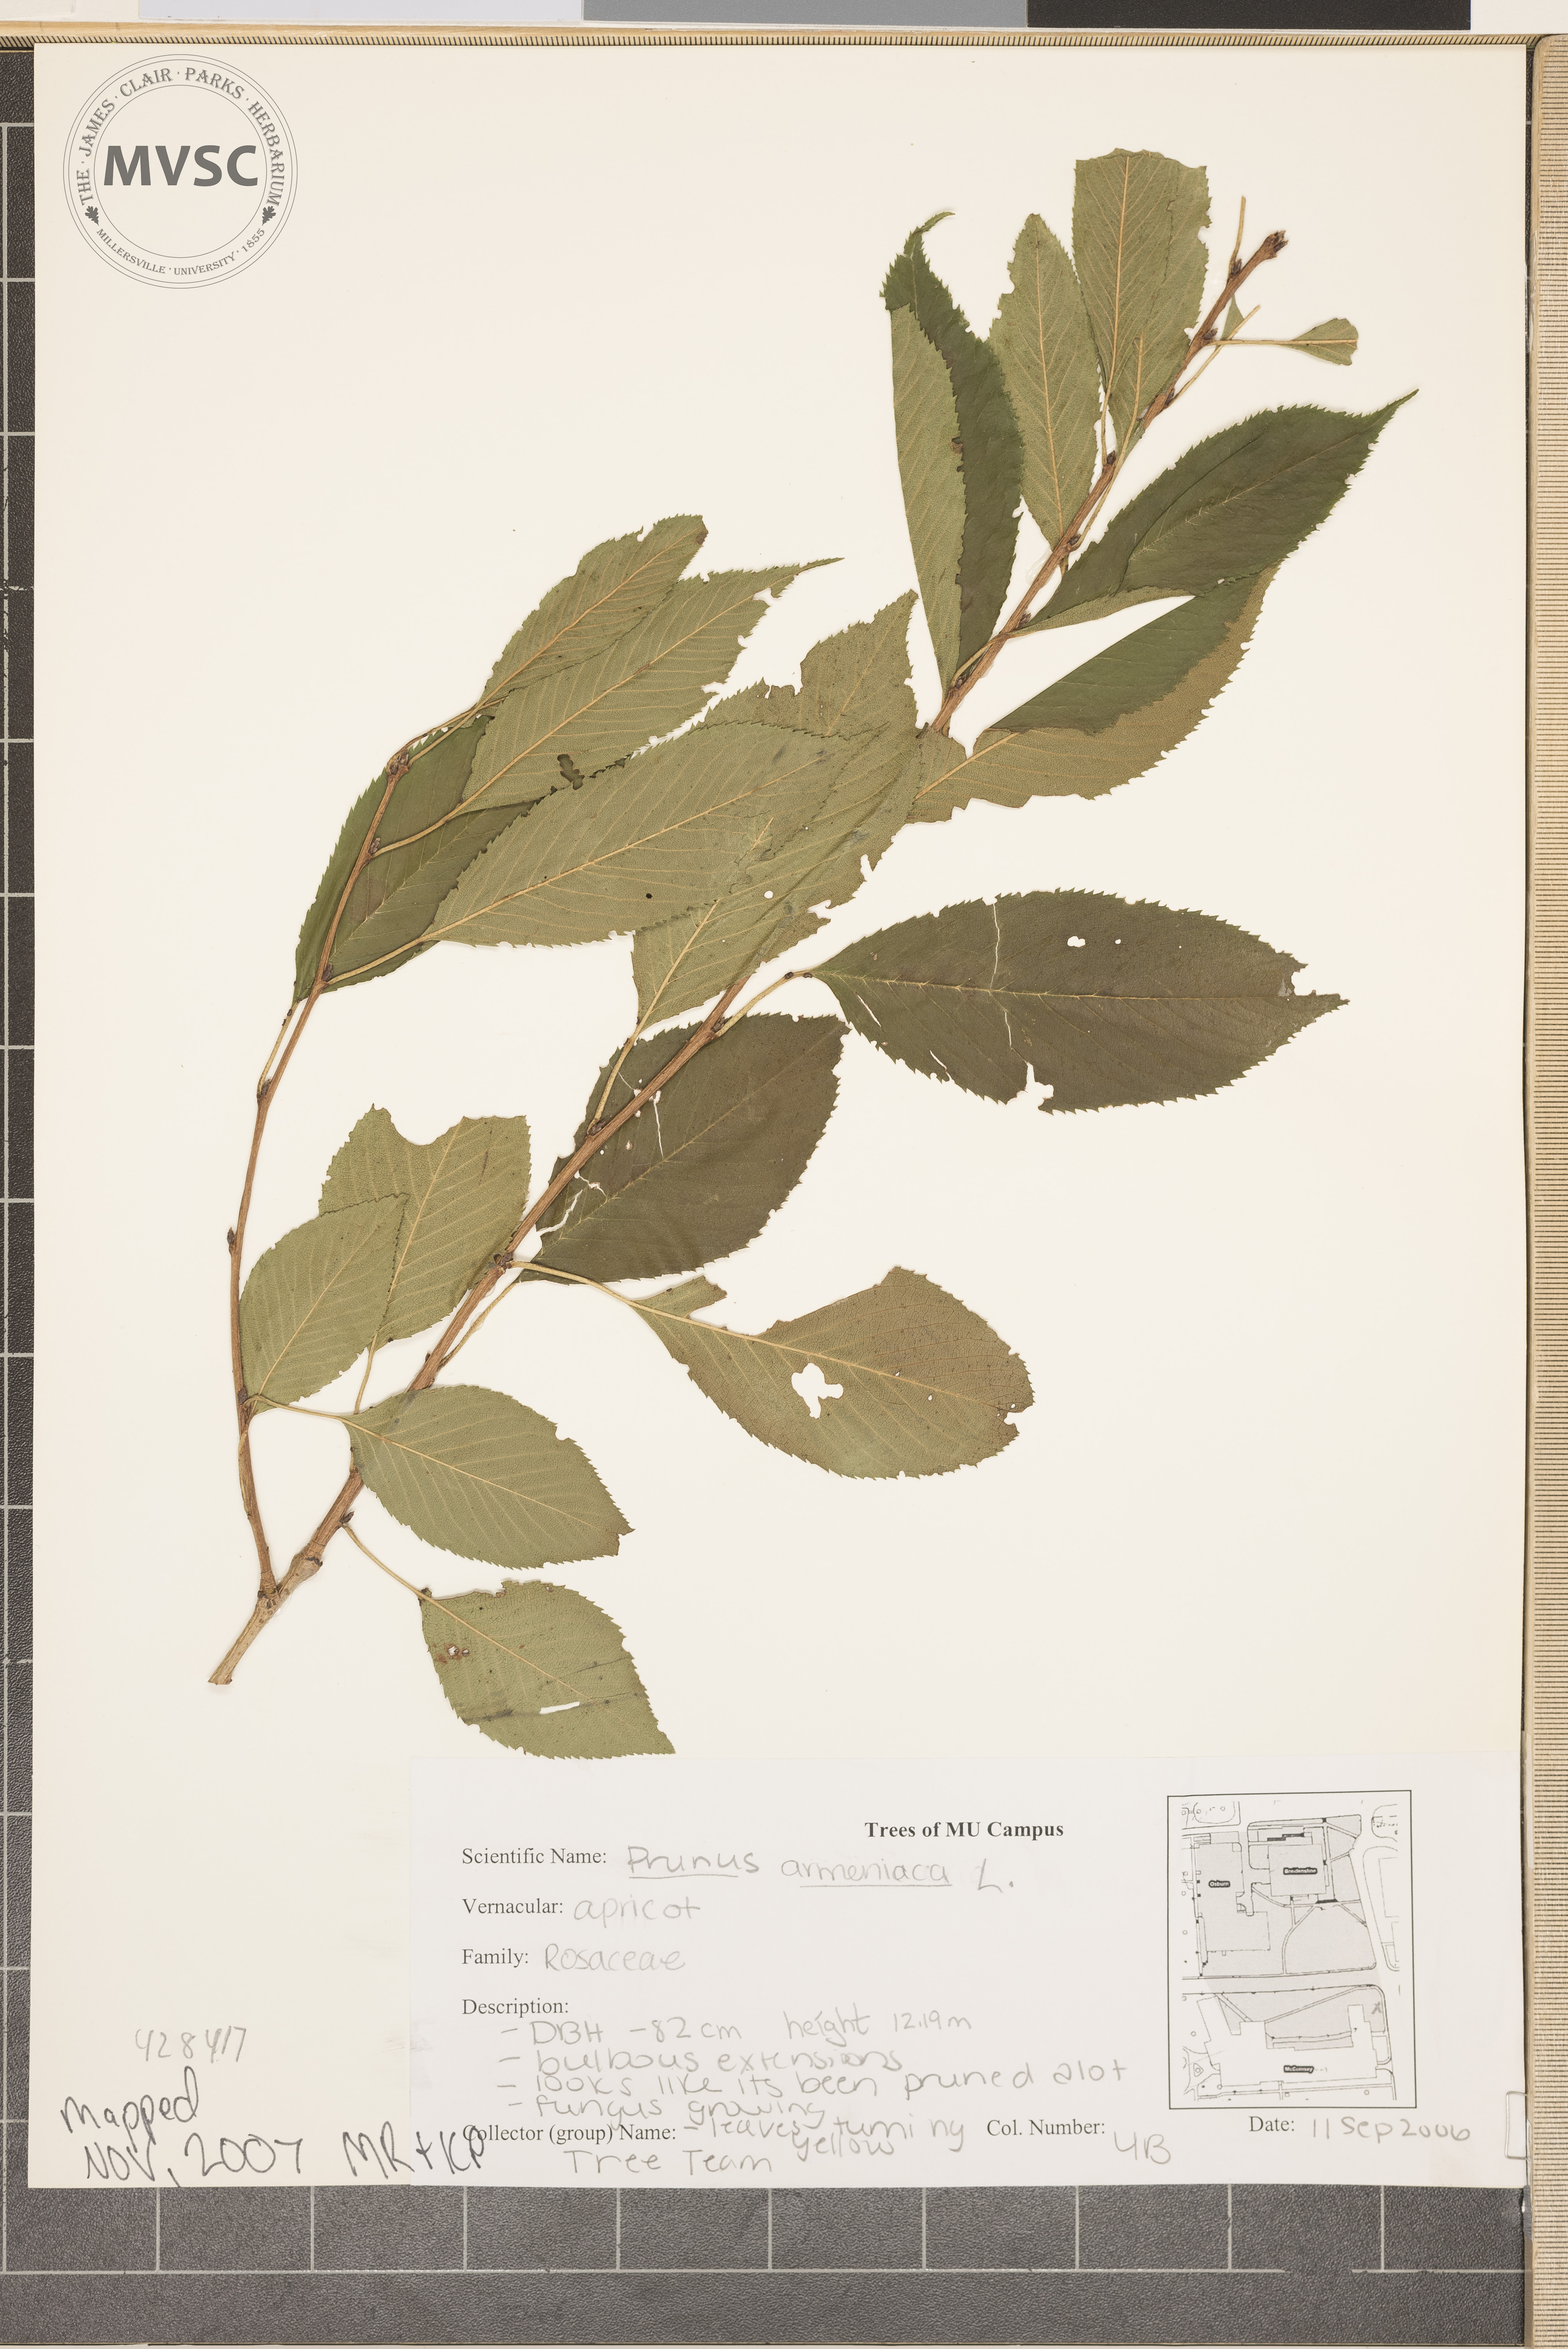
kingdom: Plantae
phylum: Tracheophyta
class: Magnoliopsida
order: Rosales
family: Rosaceae
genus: Prunus
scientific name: Prunus armeniaca
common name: Apricot
